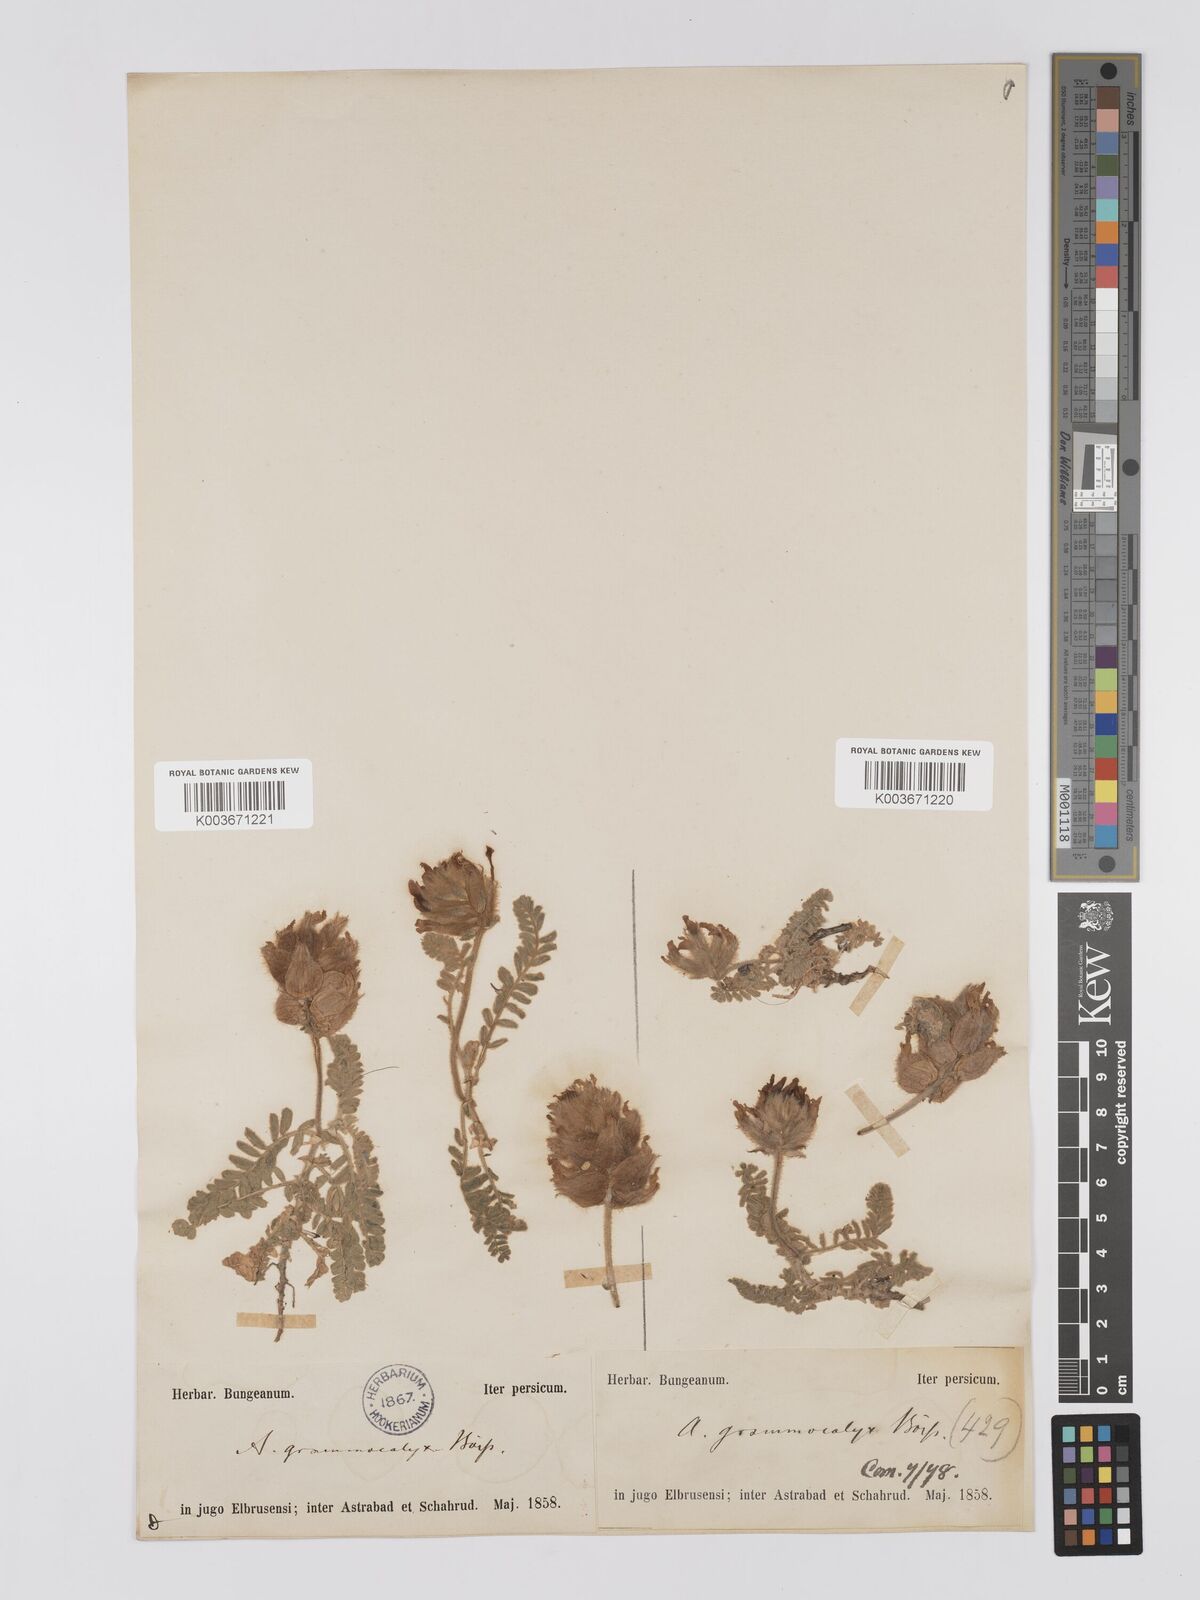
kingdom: Plantae
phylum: Tracheophyta
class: Magnoliopsida
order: Fabales
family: Fabaceae
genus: Astragalus
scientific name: Astragalus lineatus
